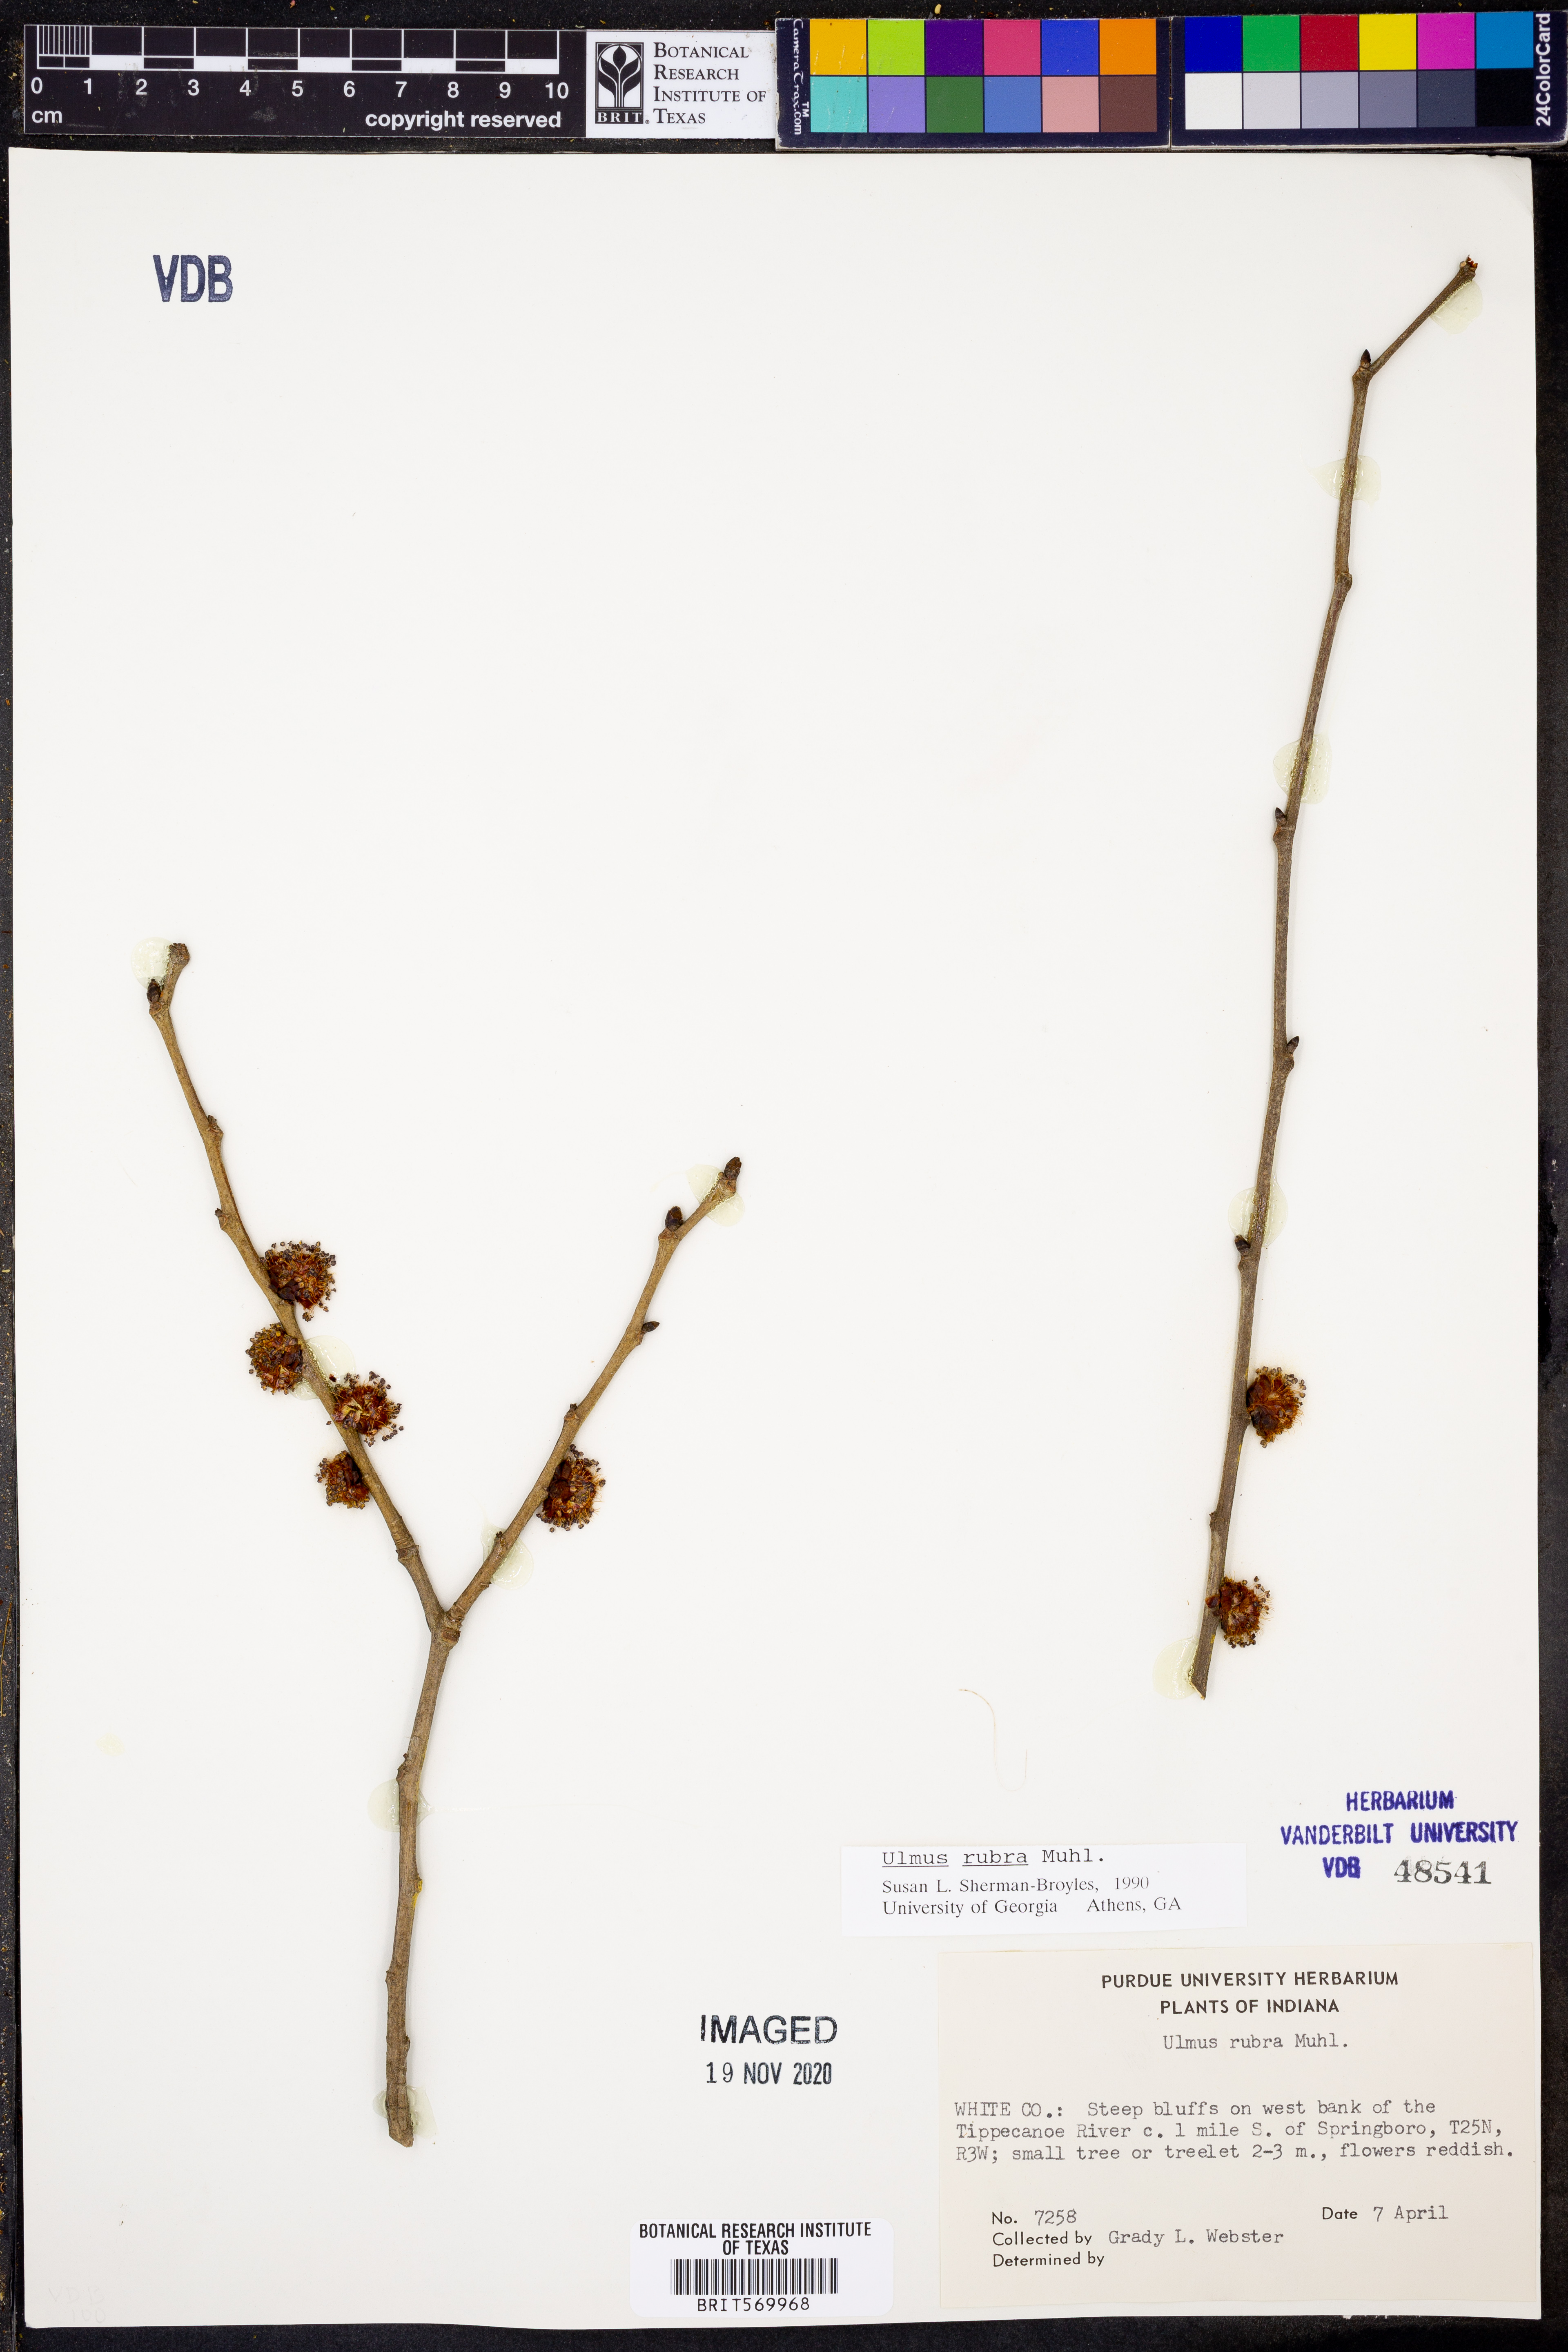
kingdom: Plantae
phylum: Tracheophyta
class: Magnoliopsida
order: Rosales
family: Ulmaceae
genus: Ulmus
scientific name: Ulmus rubra
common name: Slippery elm
